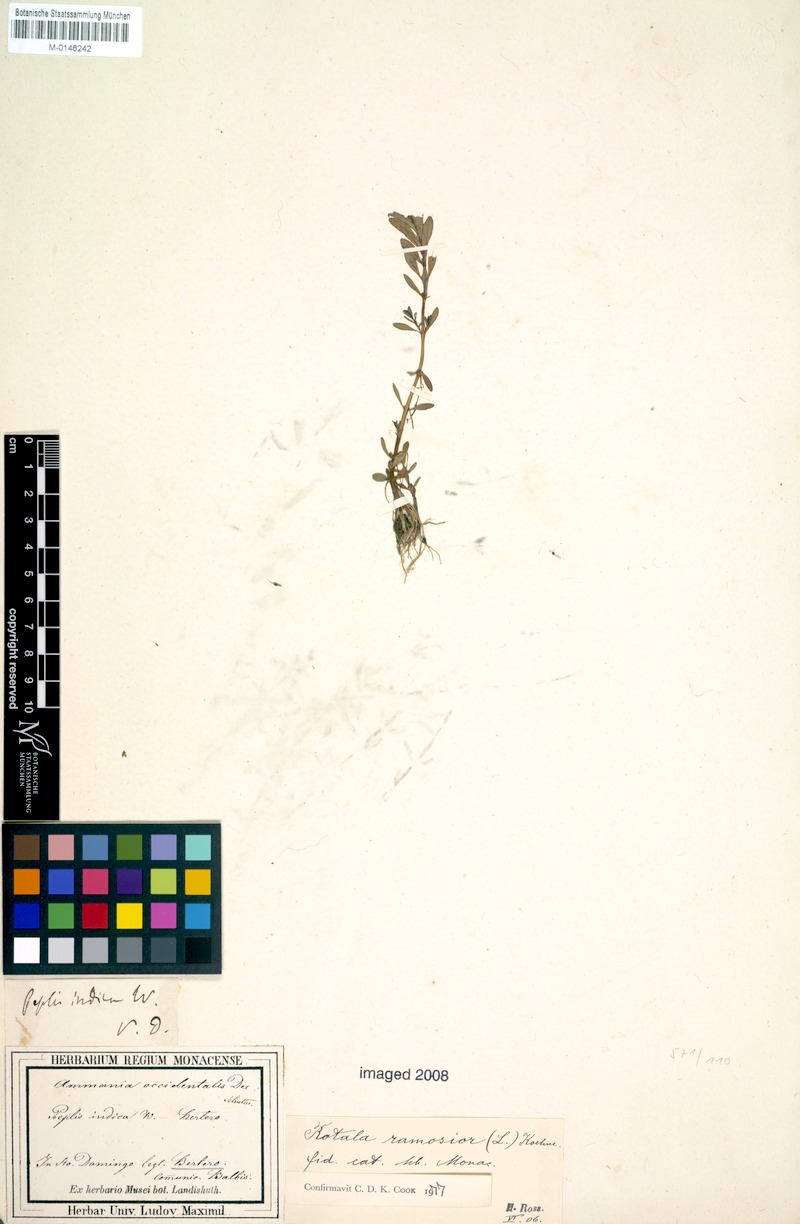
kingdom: Plantae
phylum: Tracheophyta
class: Magnoliopsida
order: Myrtales
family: Lythraceae
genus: Rotala
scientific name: Rotala ramosior
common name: Lowland rotala
